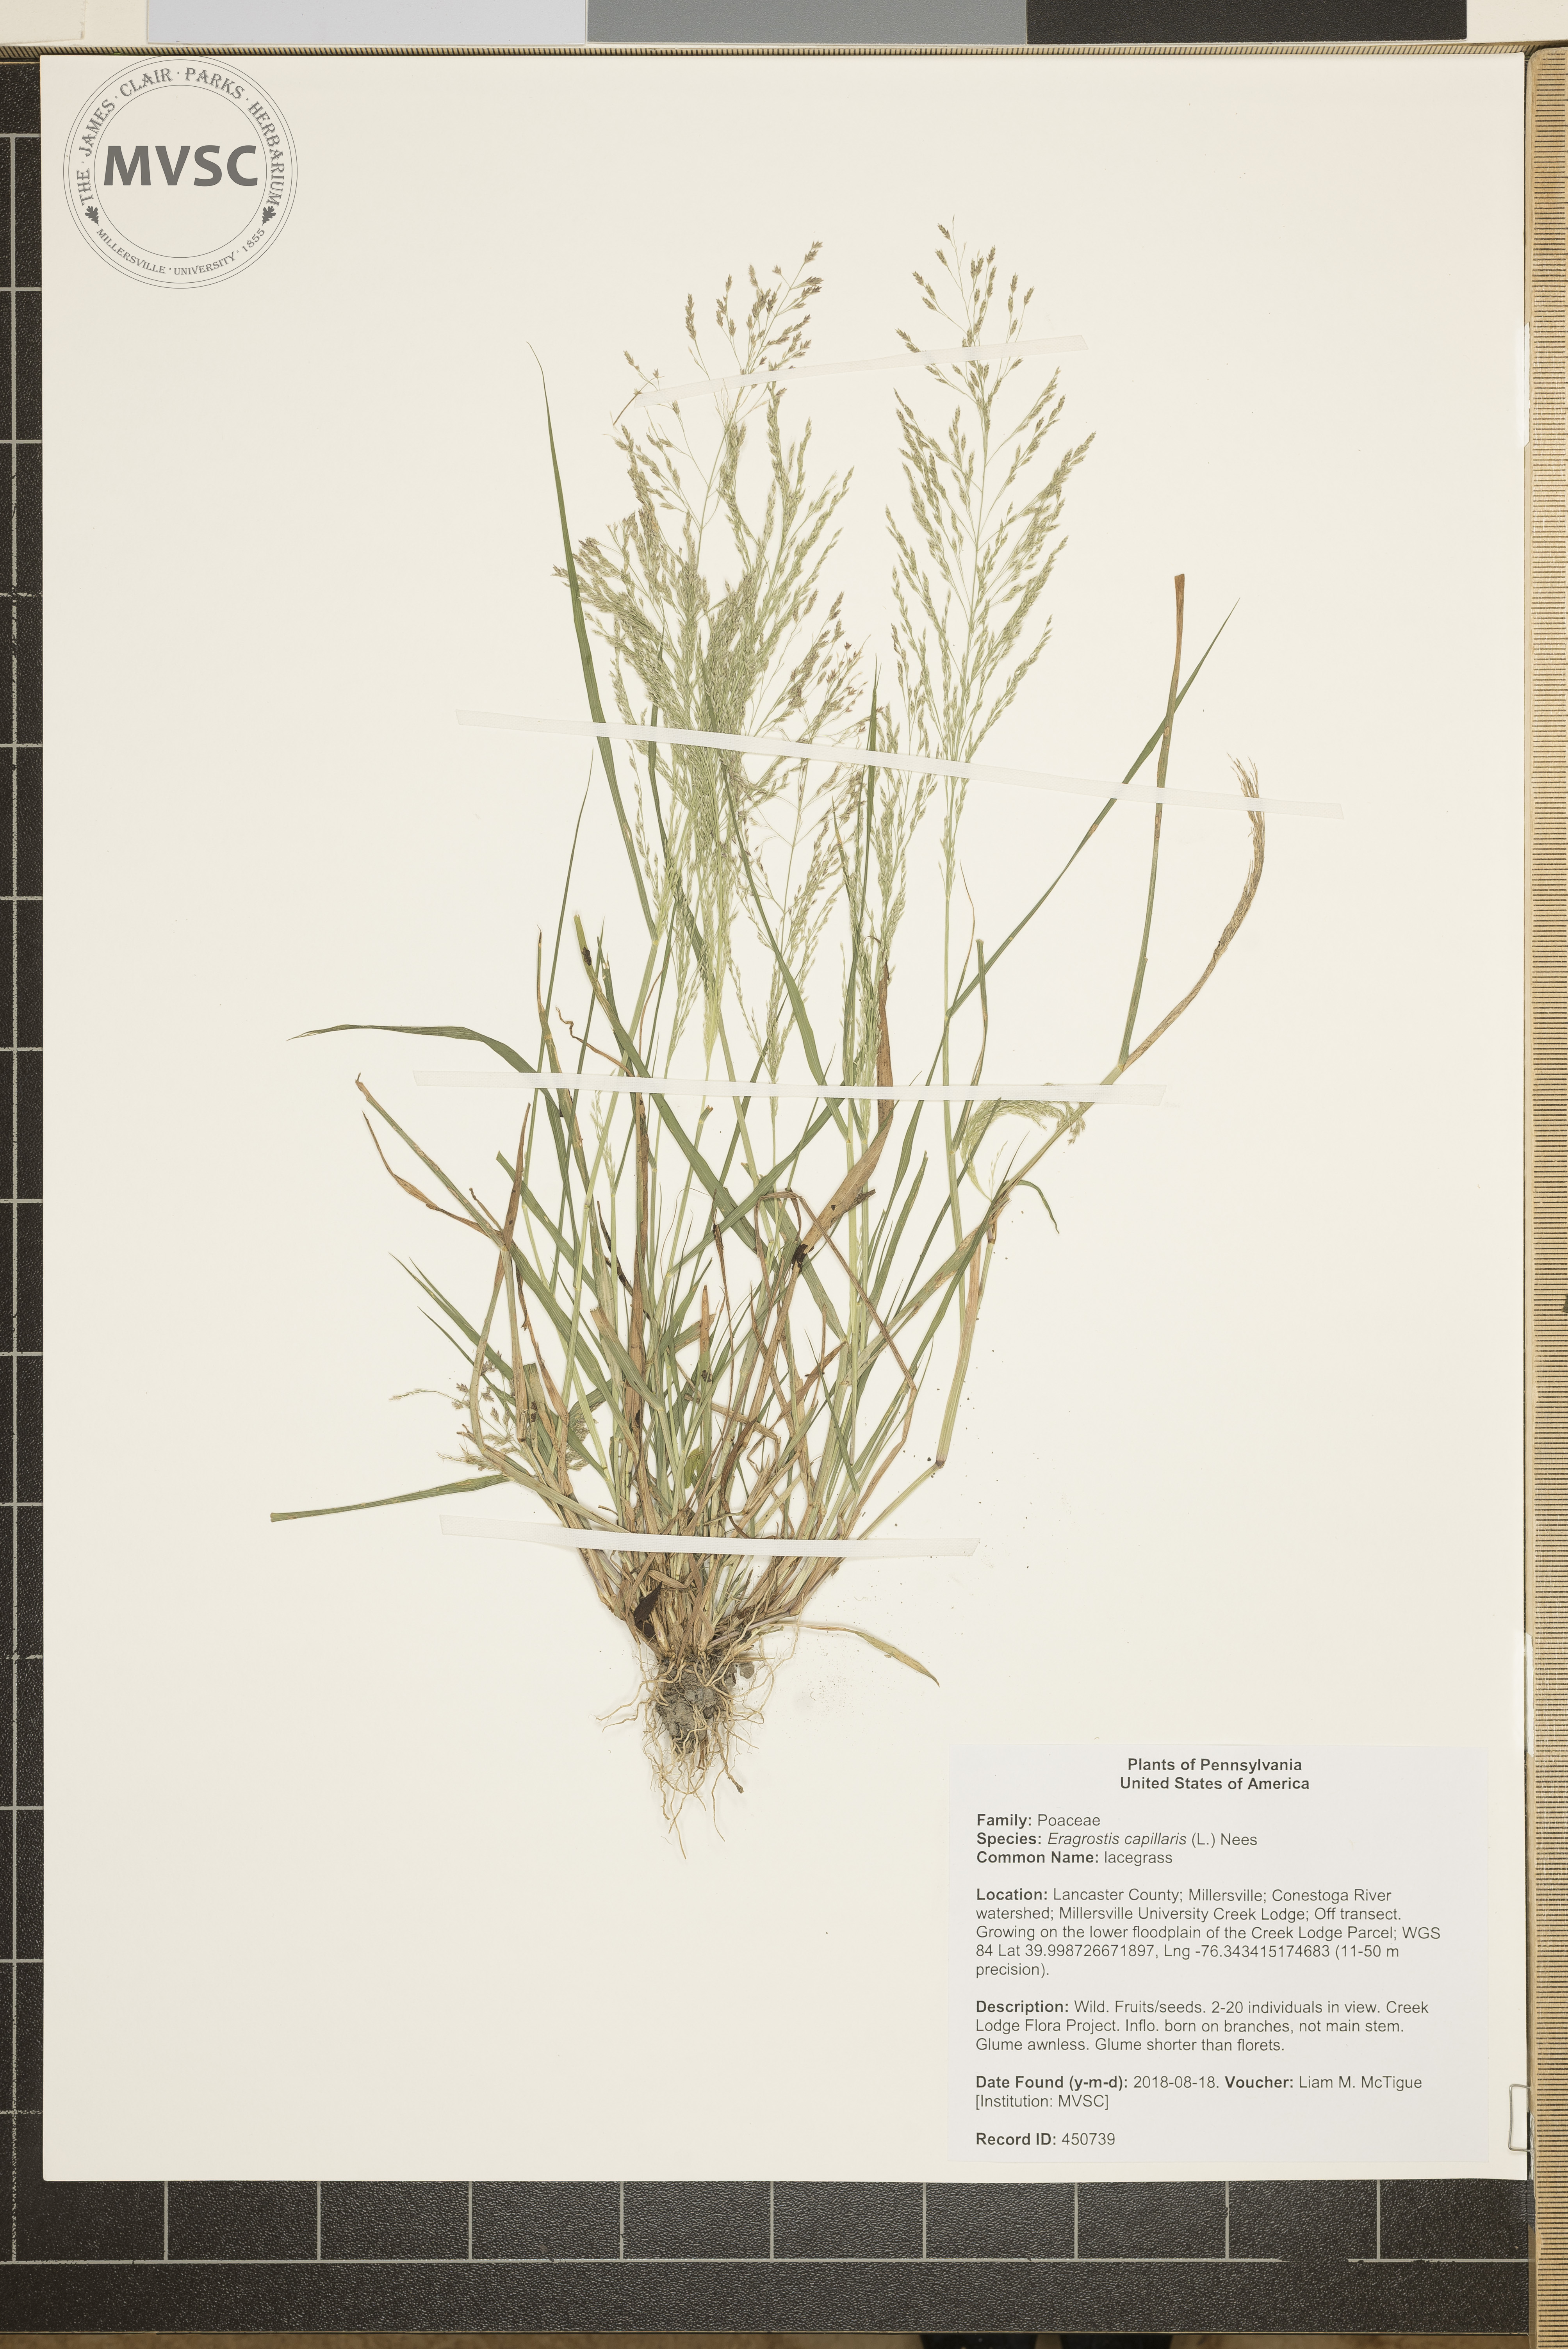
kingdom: Plantae
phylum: Tracheophyta
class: Liliopsida
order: Poales
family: Poaceae
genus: Eragrostis
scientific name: Eragrostis capillaris
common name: lacegrass
